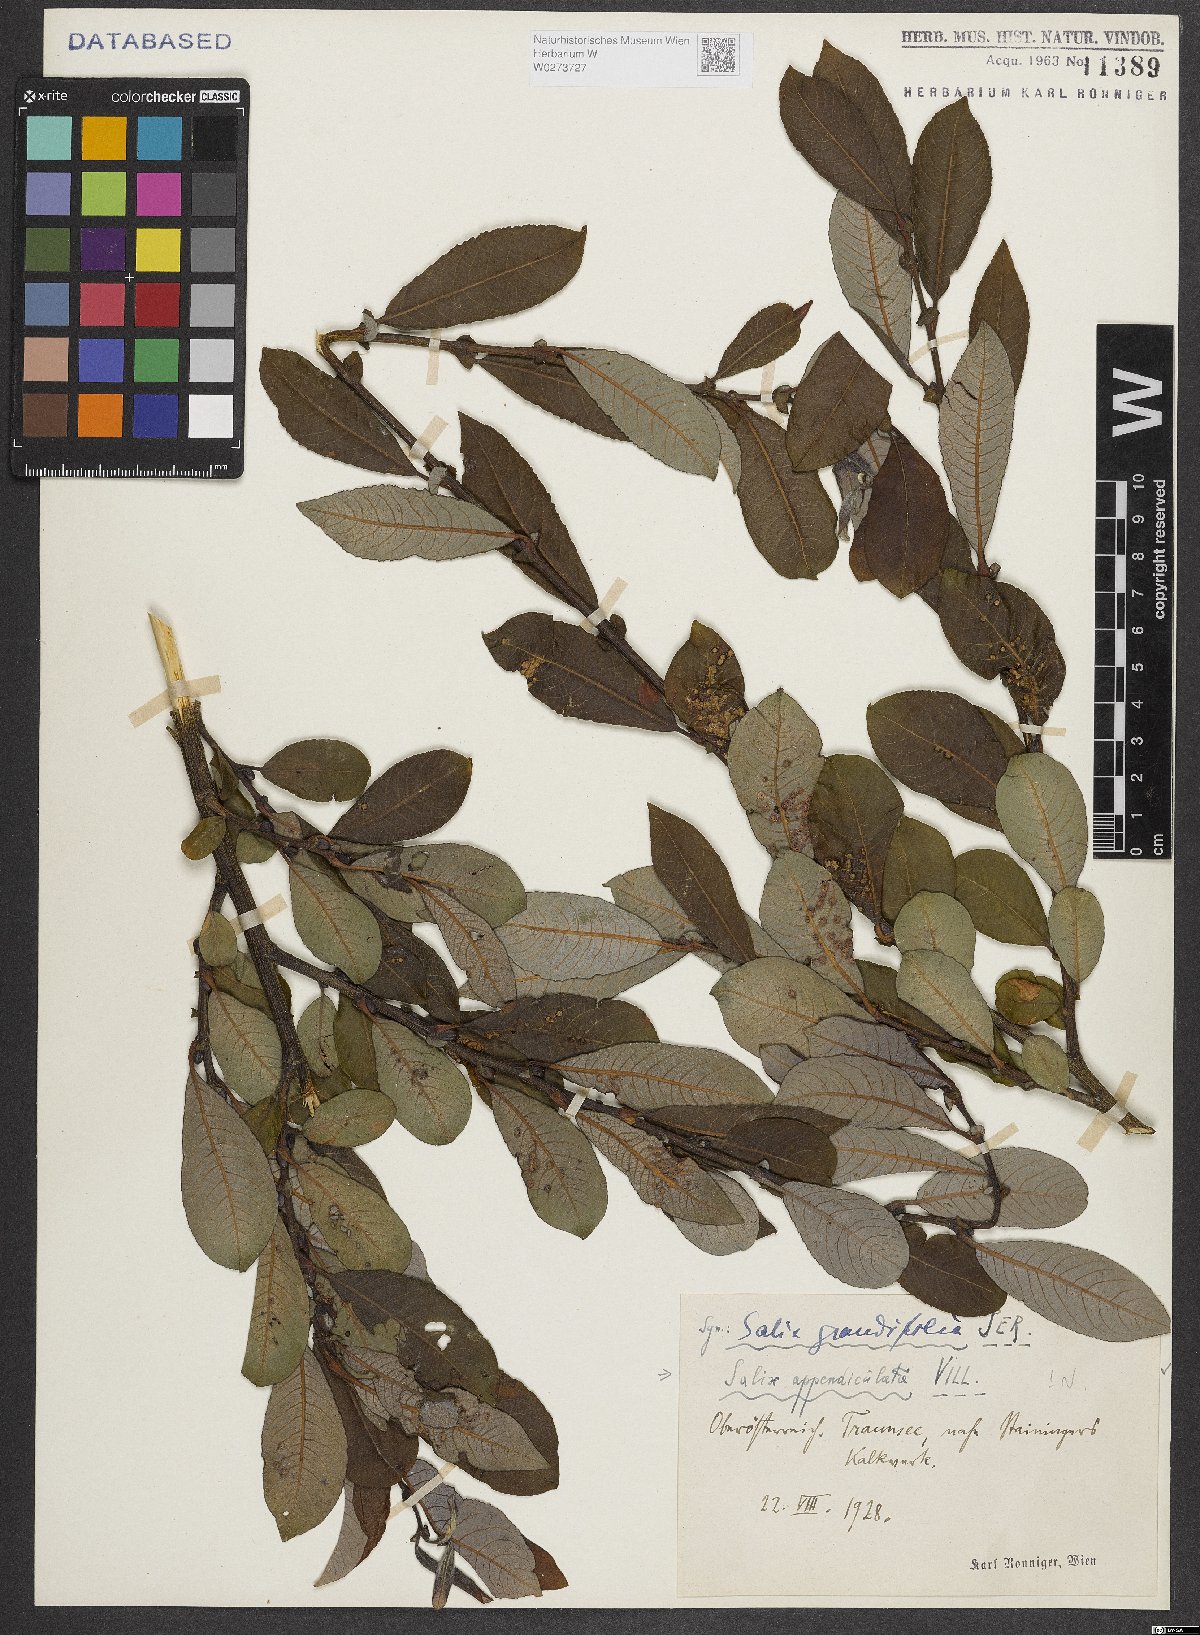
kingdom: Plantae
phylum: Tracheophyta
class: Magnoliopsida
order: Malpighiales
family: Salicaceae
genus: Salix
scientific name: Salix appendiculata
